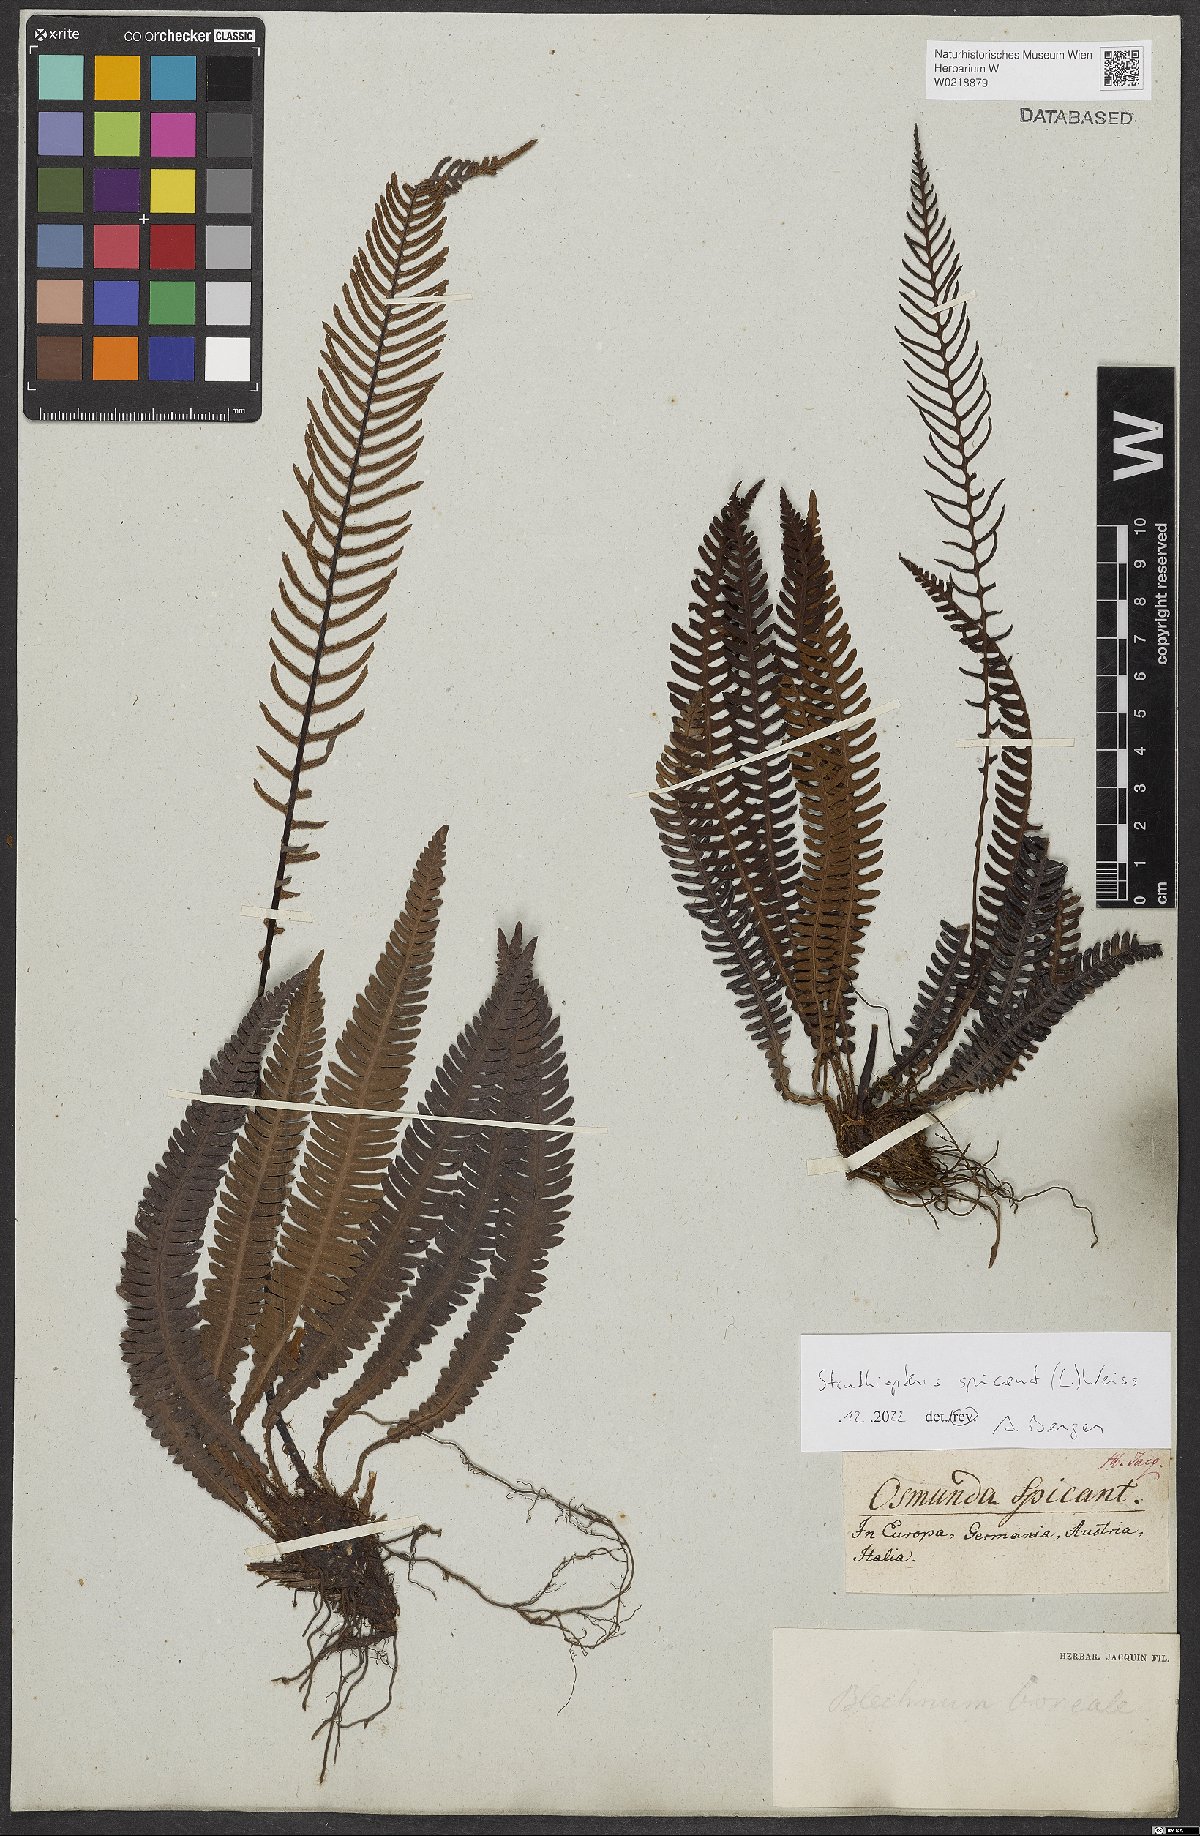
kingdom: Plantae
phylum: Tracheophyta
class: Polypodiopsida
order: Polypodiales
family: Blechnaceae
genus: Struthiopteris
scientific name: Struthiopteris spicant
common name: Deer fern
